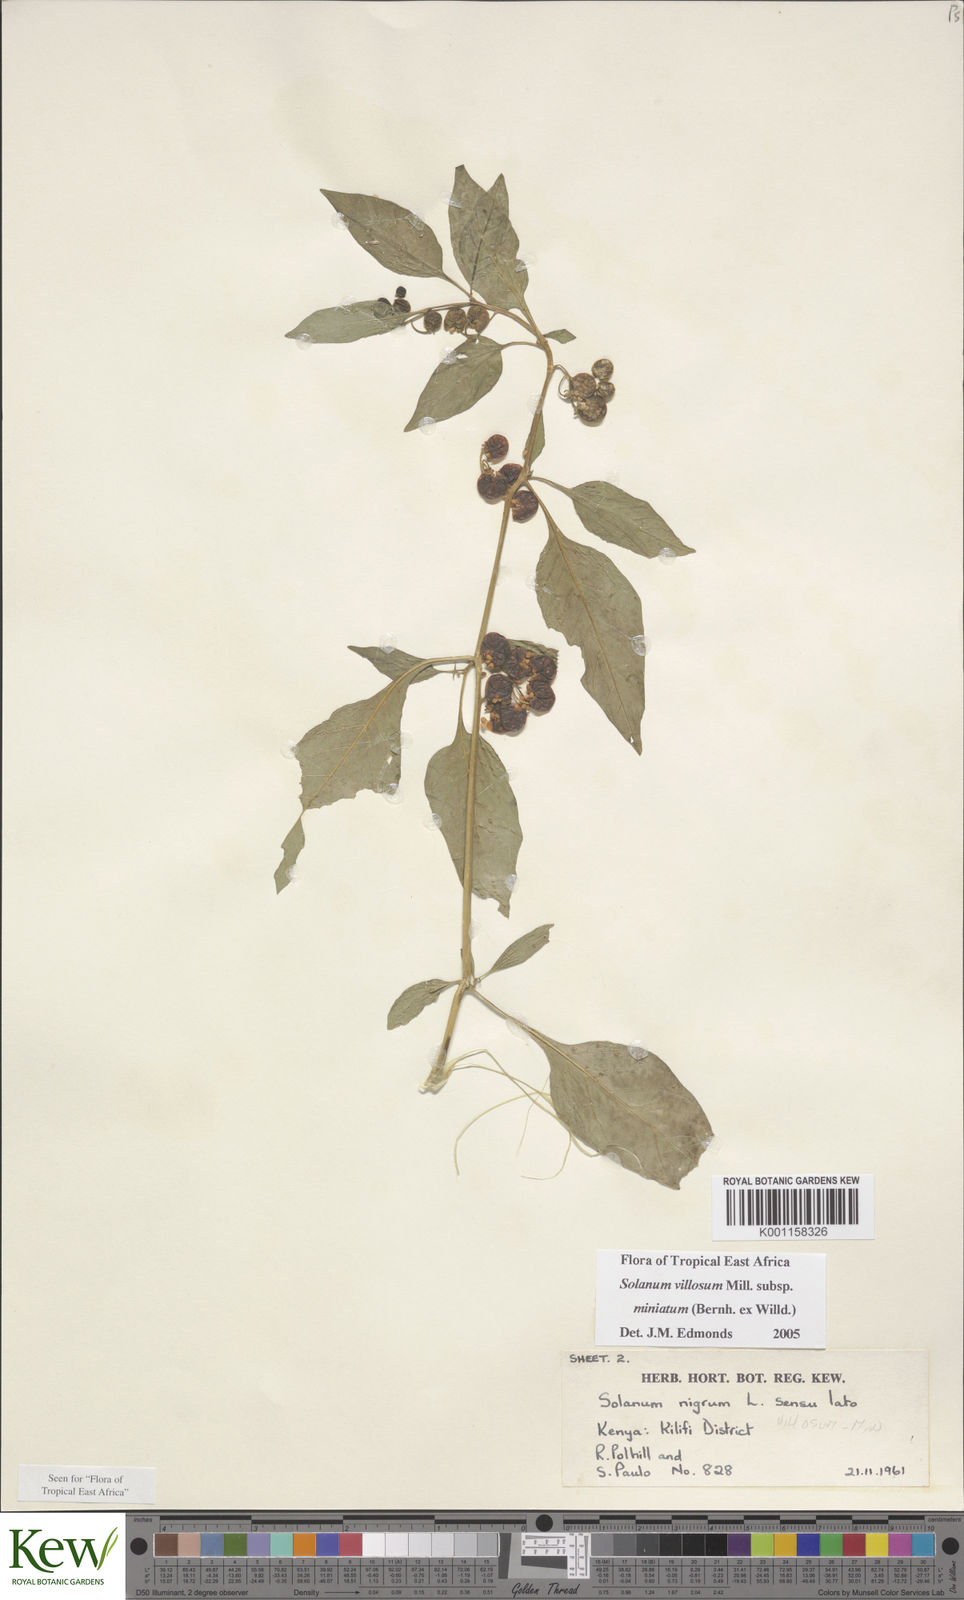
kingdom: Plantae
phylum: Tracheophyta
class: Magnoliopsida
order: Solanales
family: Solanaceae
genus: Solanum
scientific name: Solanum villosum
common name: Red nightshade
